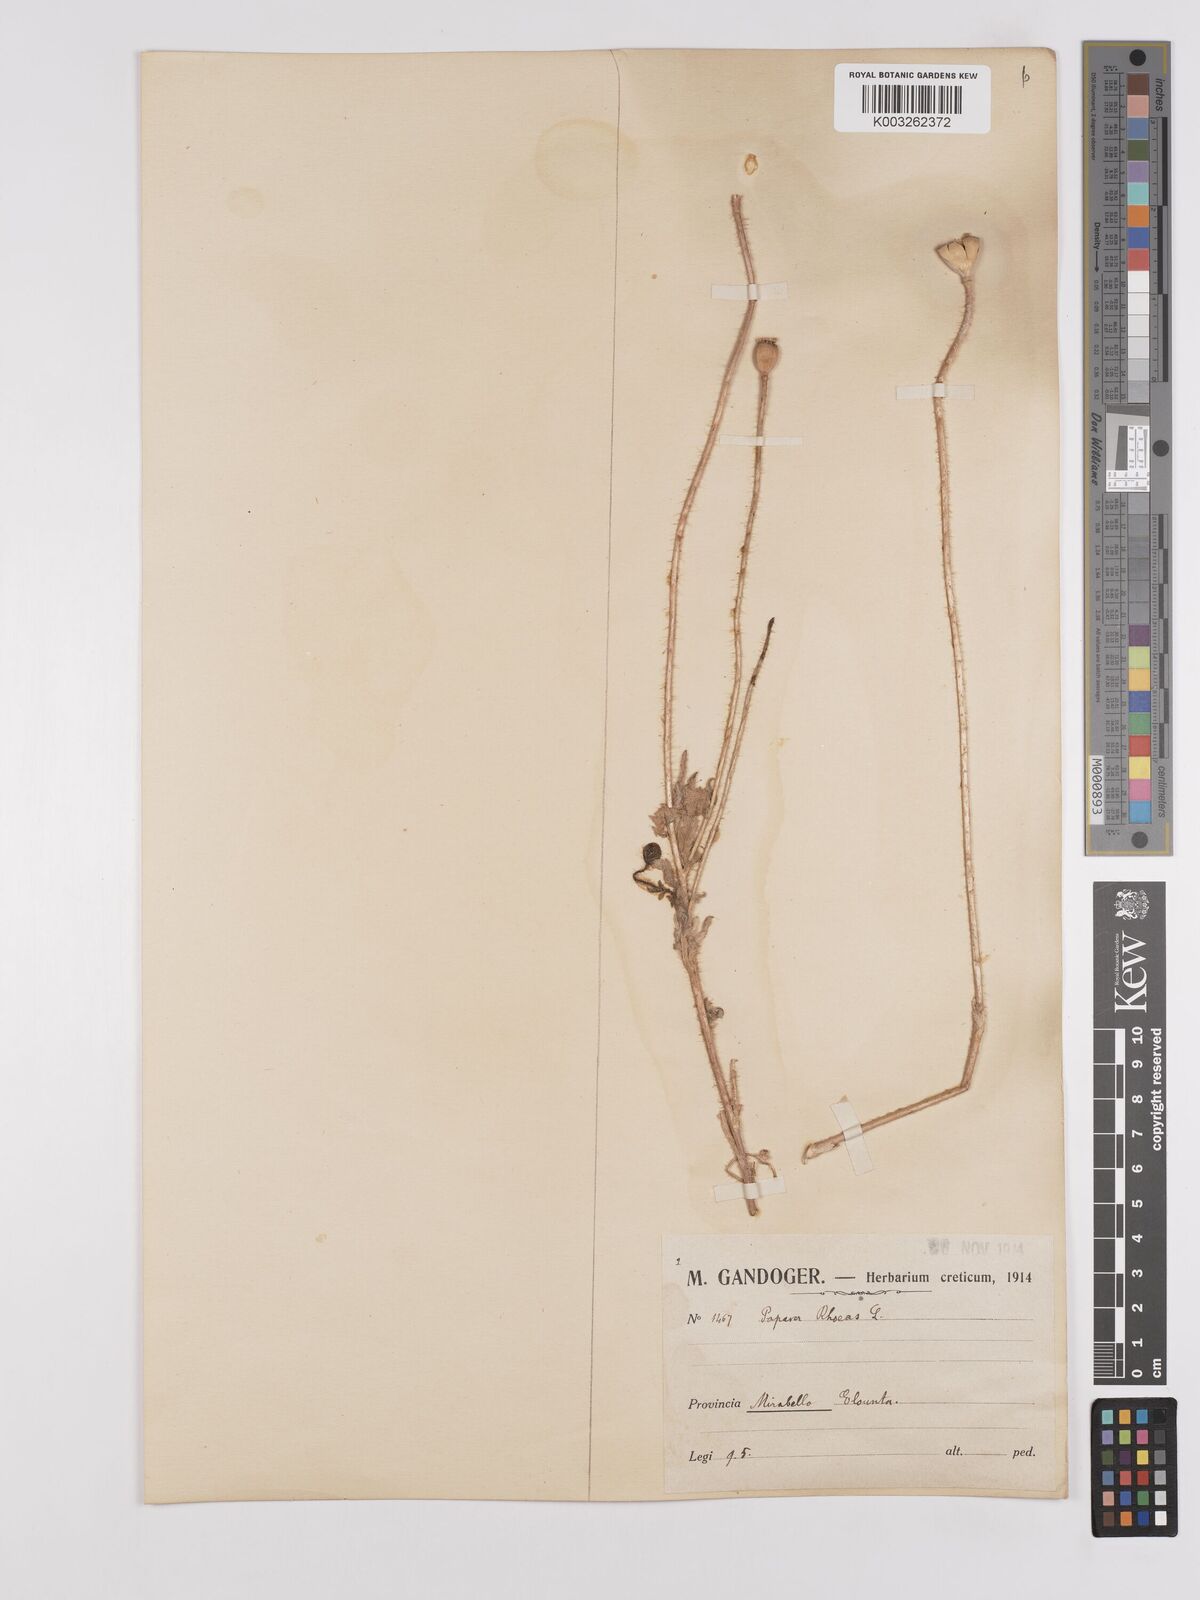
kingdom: Plantae
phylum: Tracheophyta
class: Magnoliopsida
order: Ranunculales
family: Papaveraceae
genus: Papaver
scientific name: Papaver rhoeas
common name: Corn poppy
